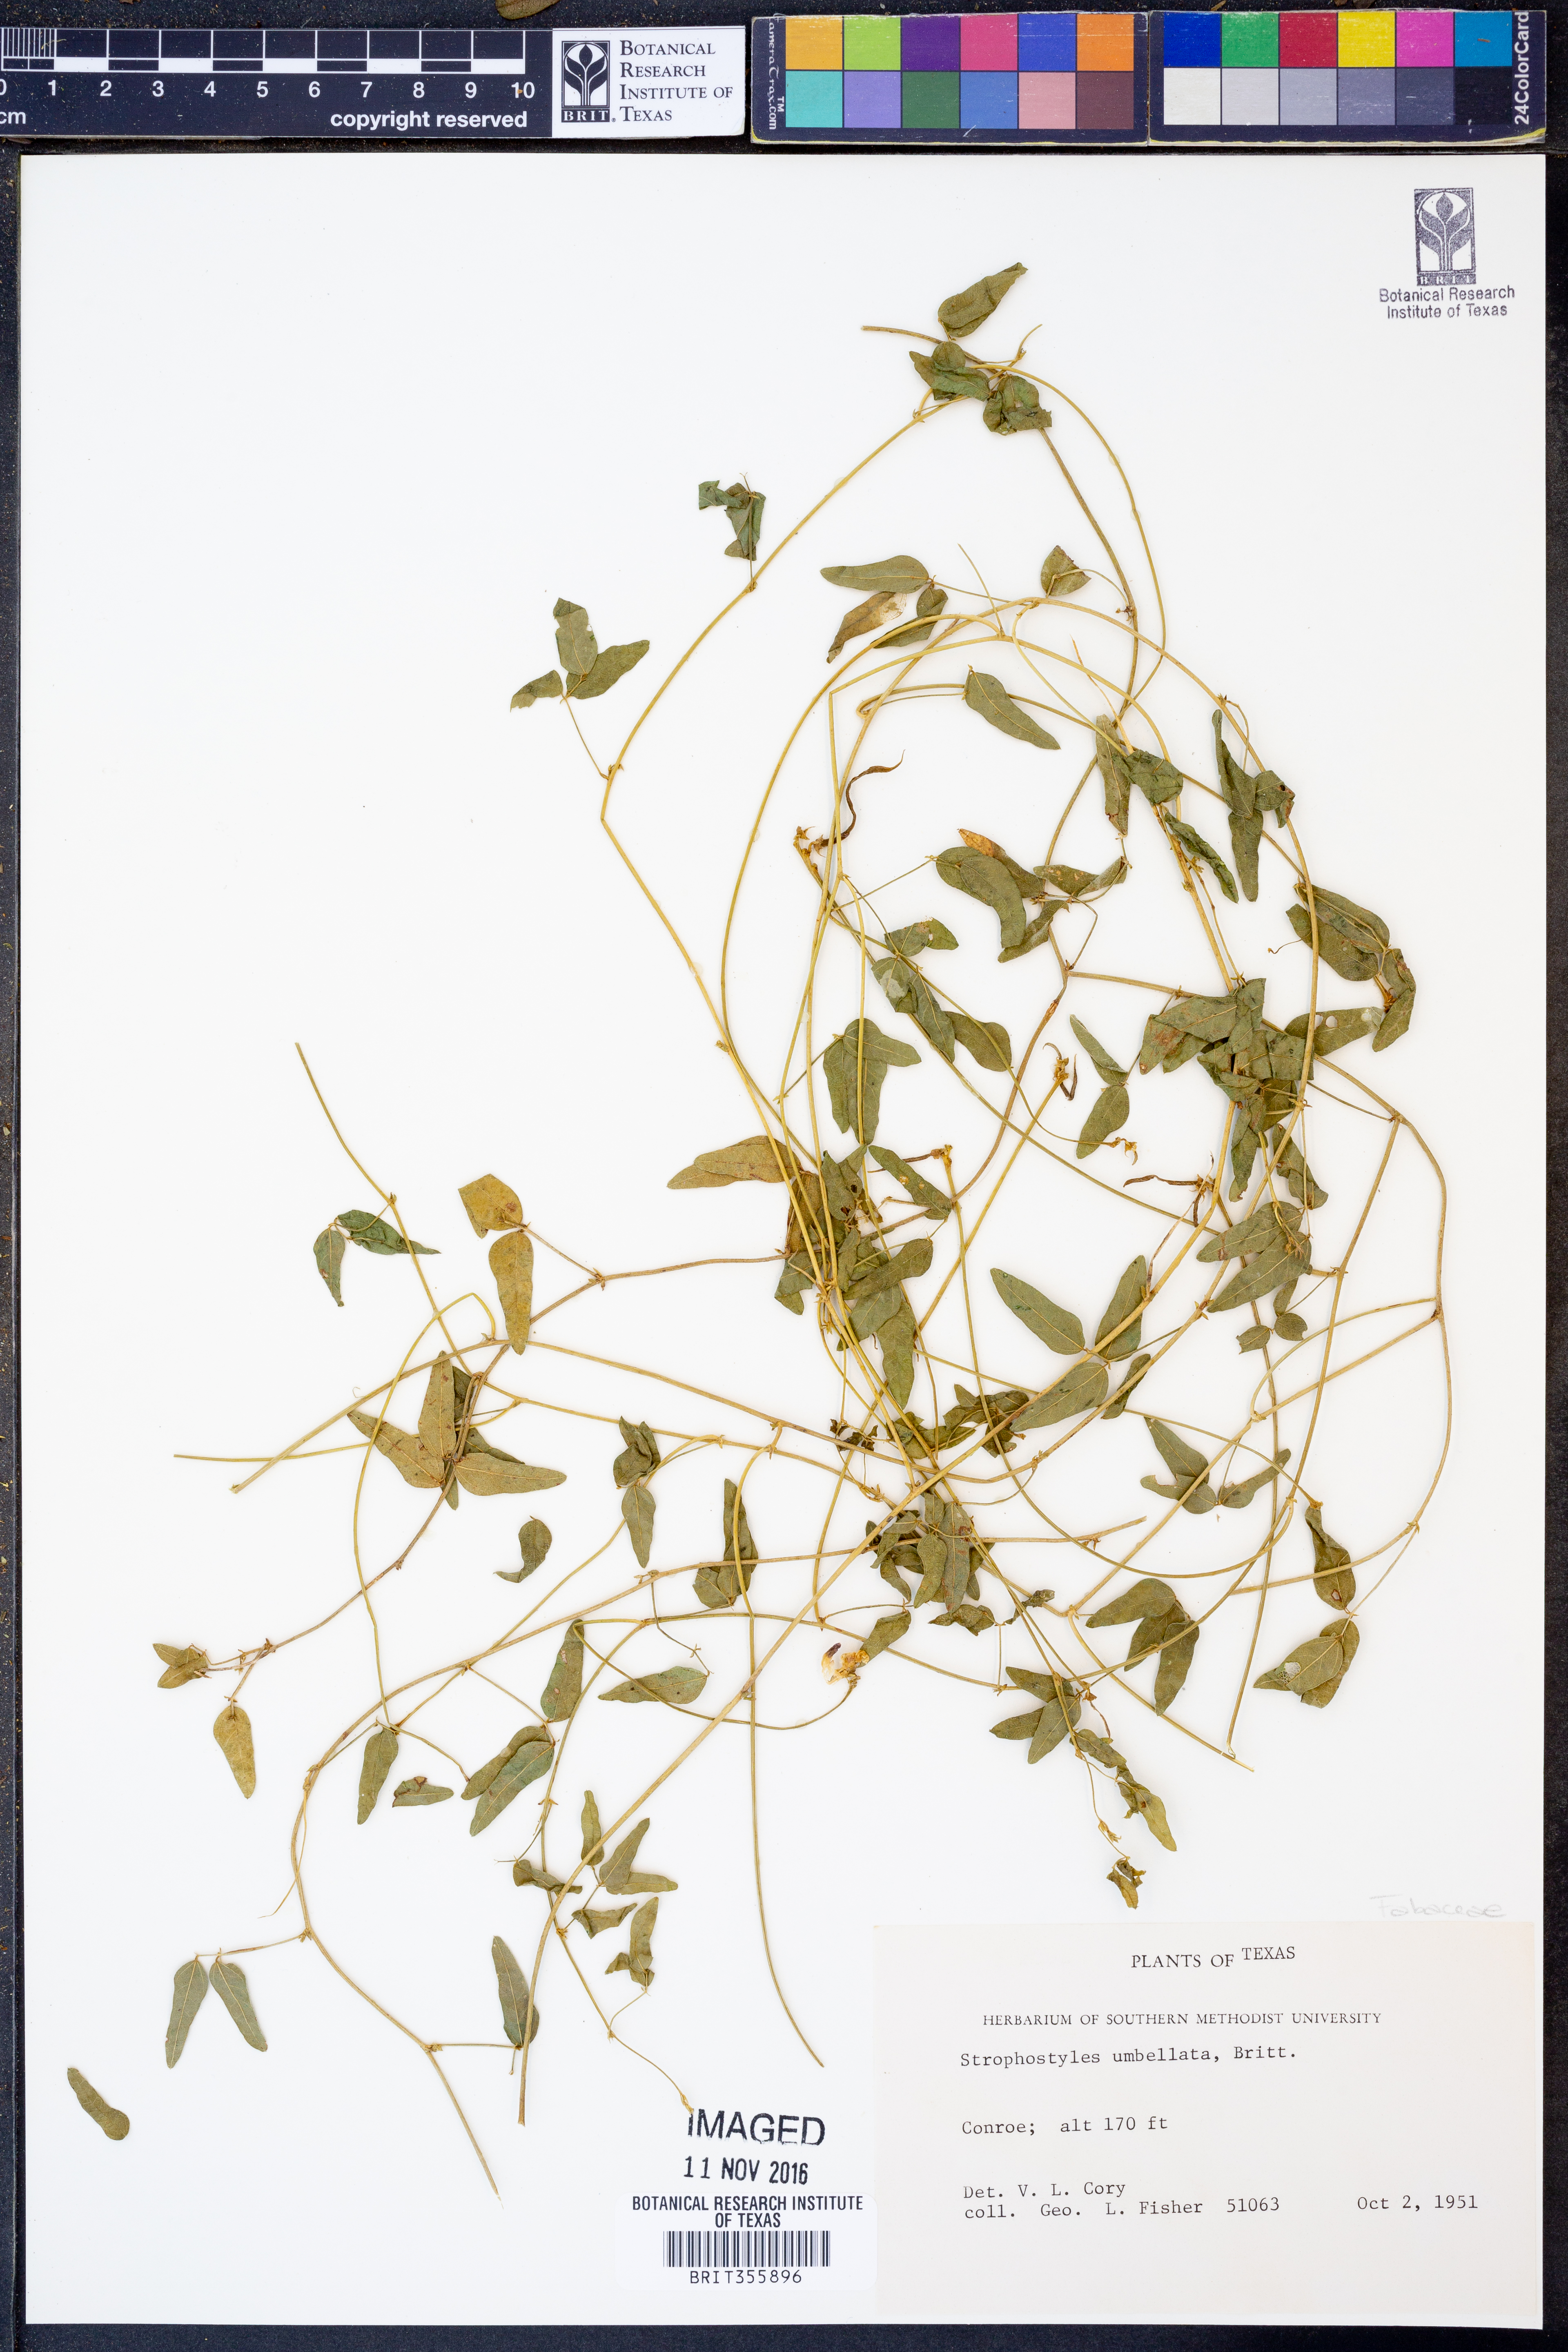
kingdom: Plantae
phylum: Tracheophyta
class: Magnoliopsida
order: Fabales
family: Fabaceae
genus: Strophostyles
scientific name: Strophostyles umbellata
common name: Perennial wild bean
